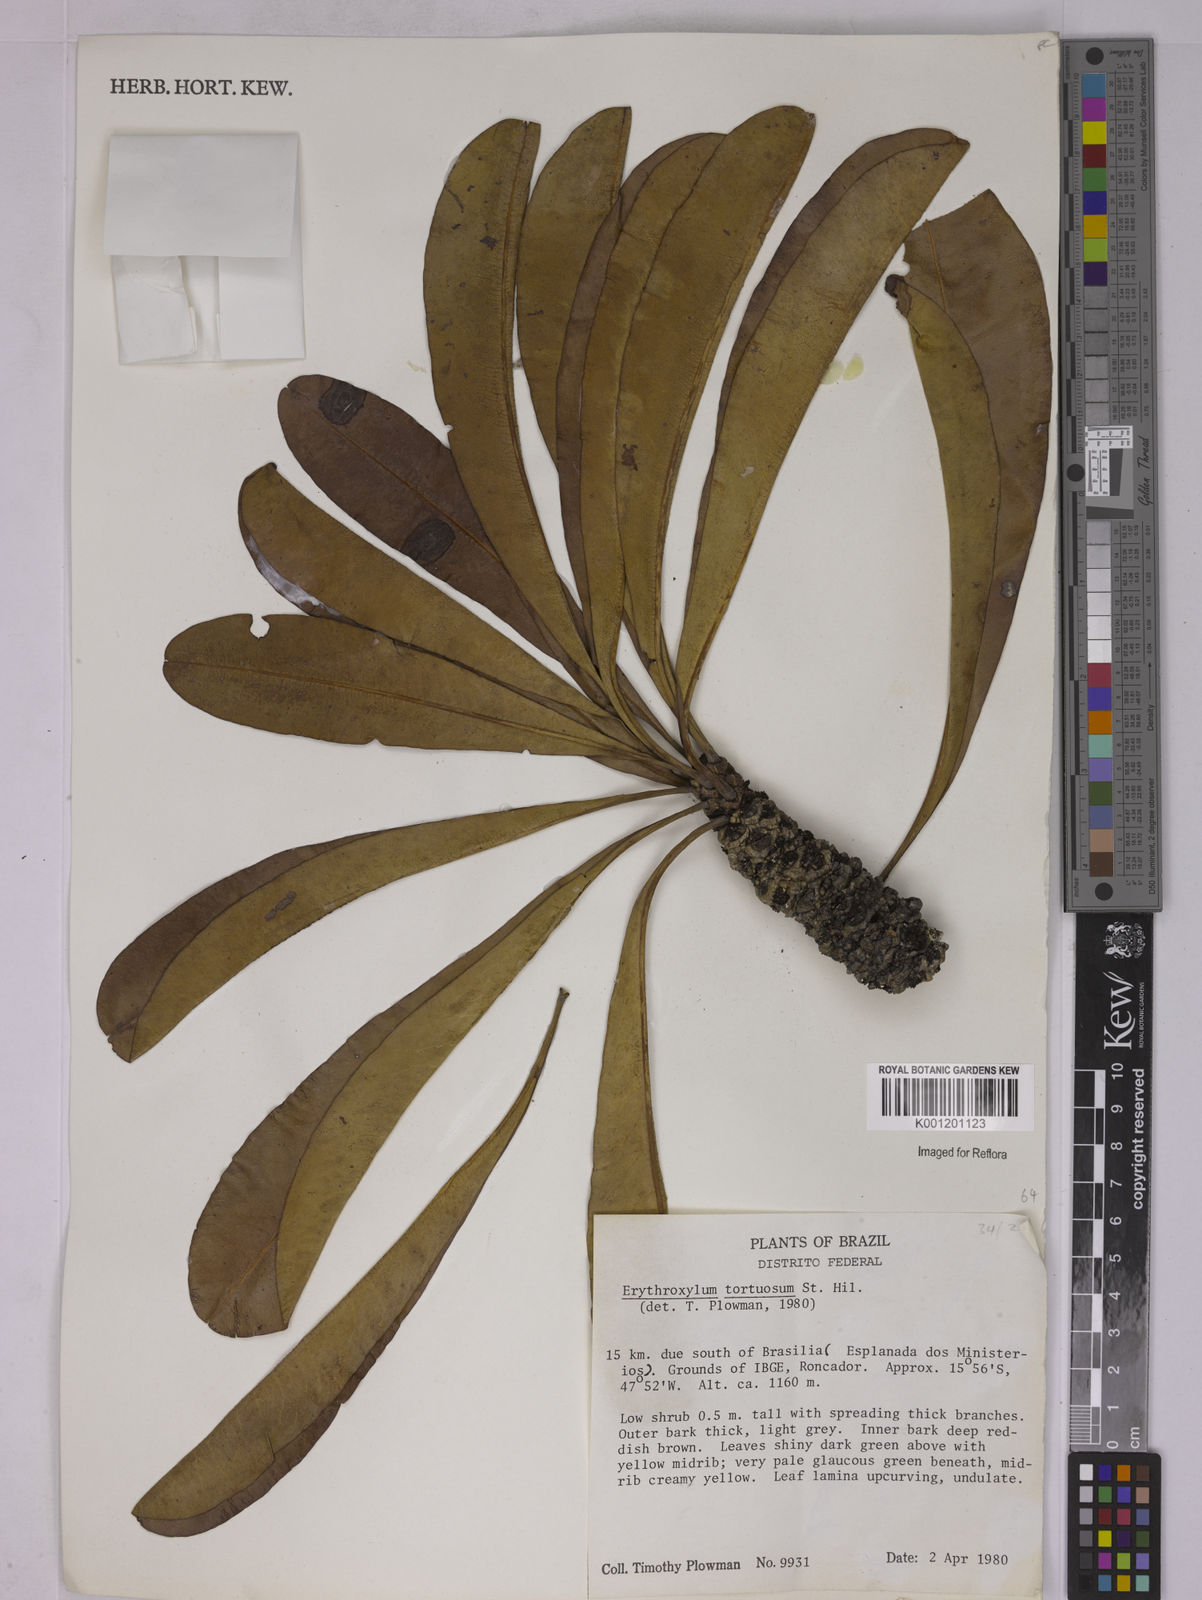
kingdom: Plantae
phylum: Tracheophyta
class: Magnoliopsida
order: Malpighiales
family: Erythroxylaceae
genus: Erythroxylum
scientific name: Erythroxylum tortuosum
